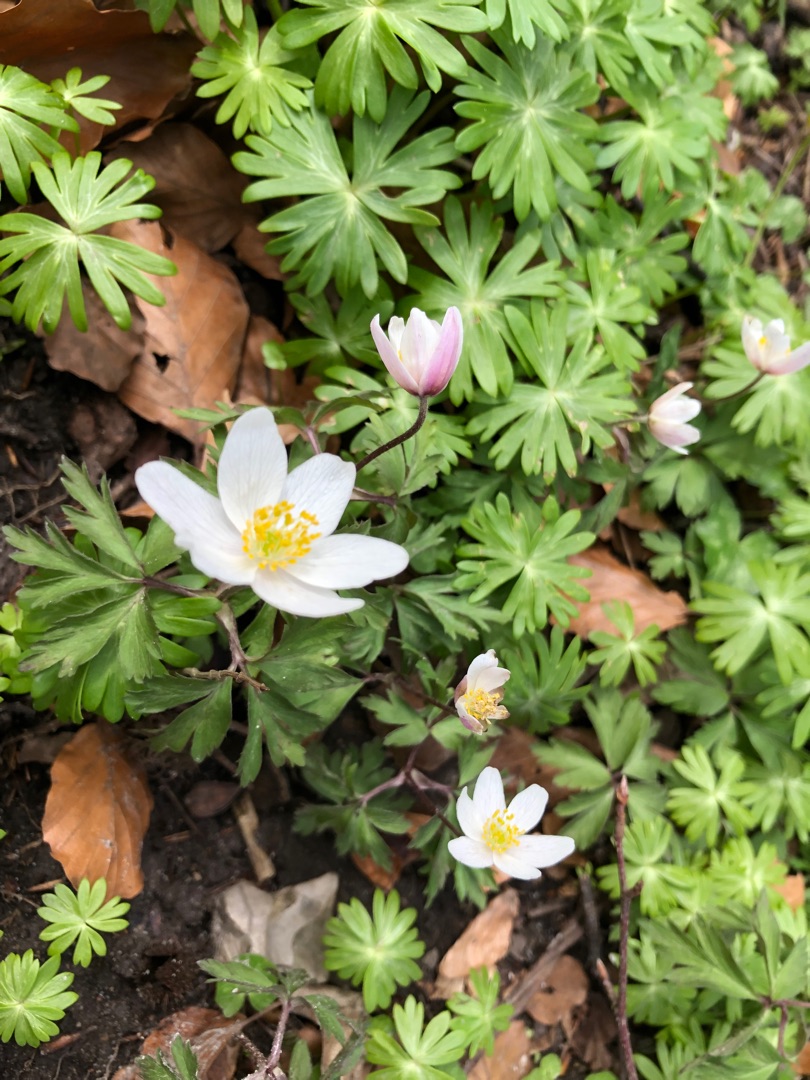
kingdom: Plantae
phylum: Tracheophyta
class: Magnoliopsida
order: Ranunculales
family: Ranunculaceae
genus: Anemone
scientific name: Anemone nemorosa
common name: Hvid anemone
